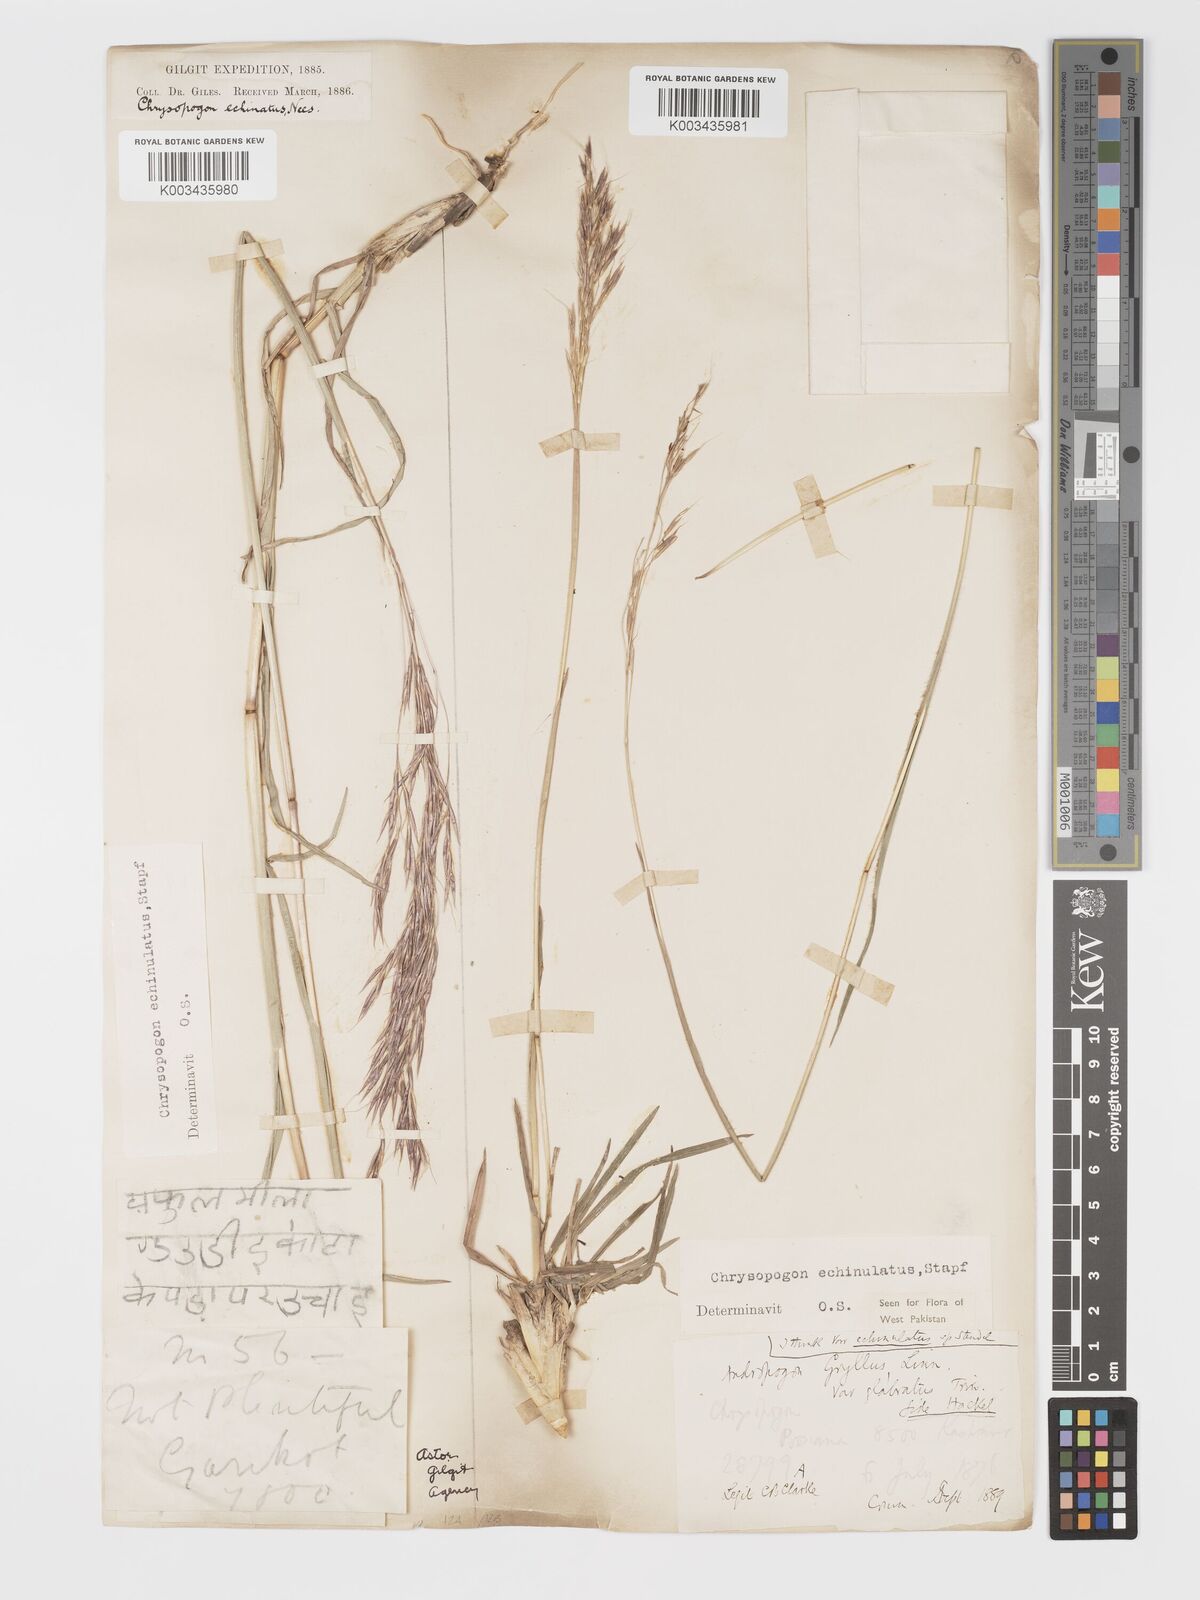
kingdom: Plantae
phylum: Tracheophyta
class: Liliopsida
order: Poales
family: Poaceae
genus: Chrysopogon
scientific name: Chrysopogon gryllus
